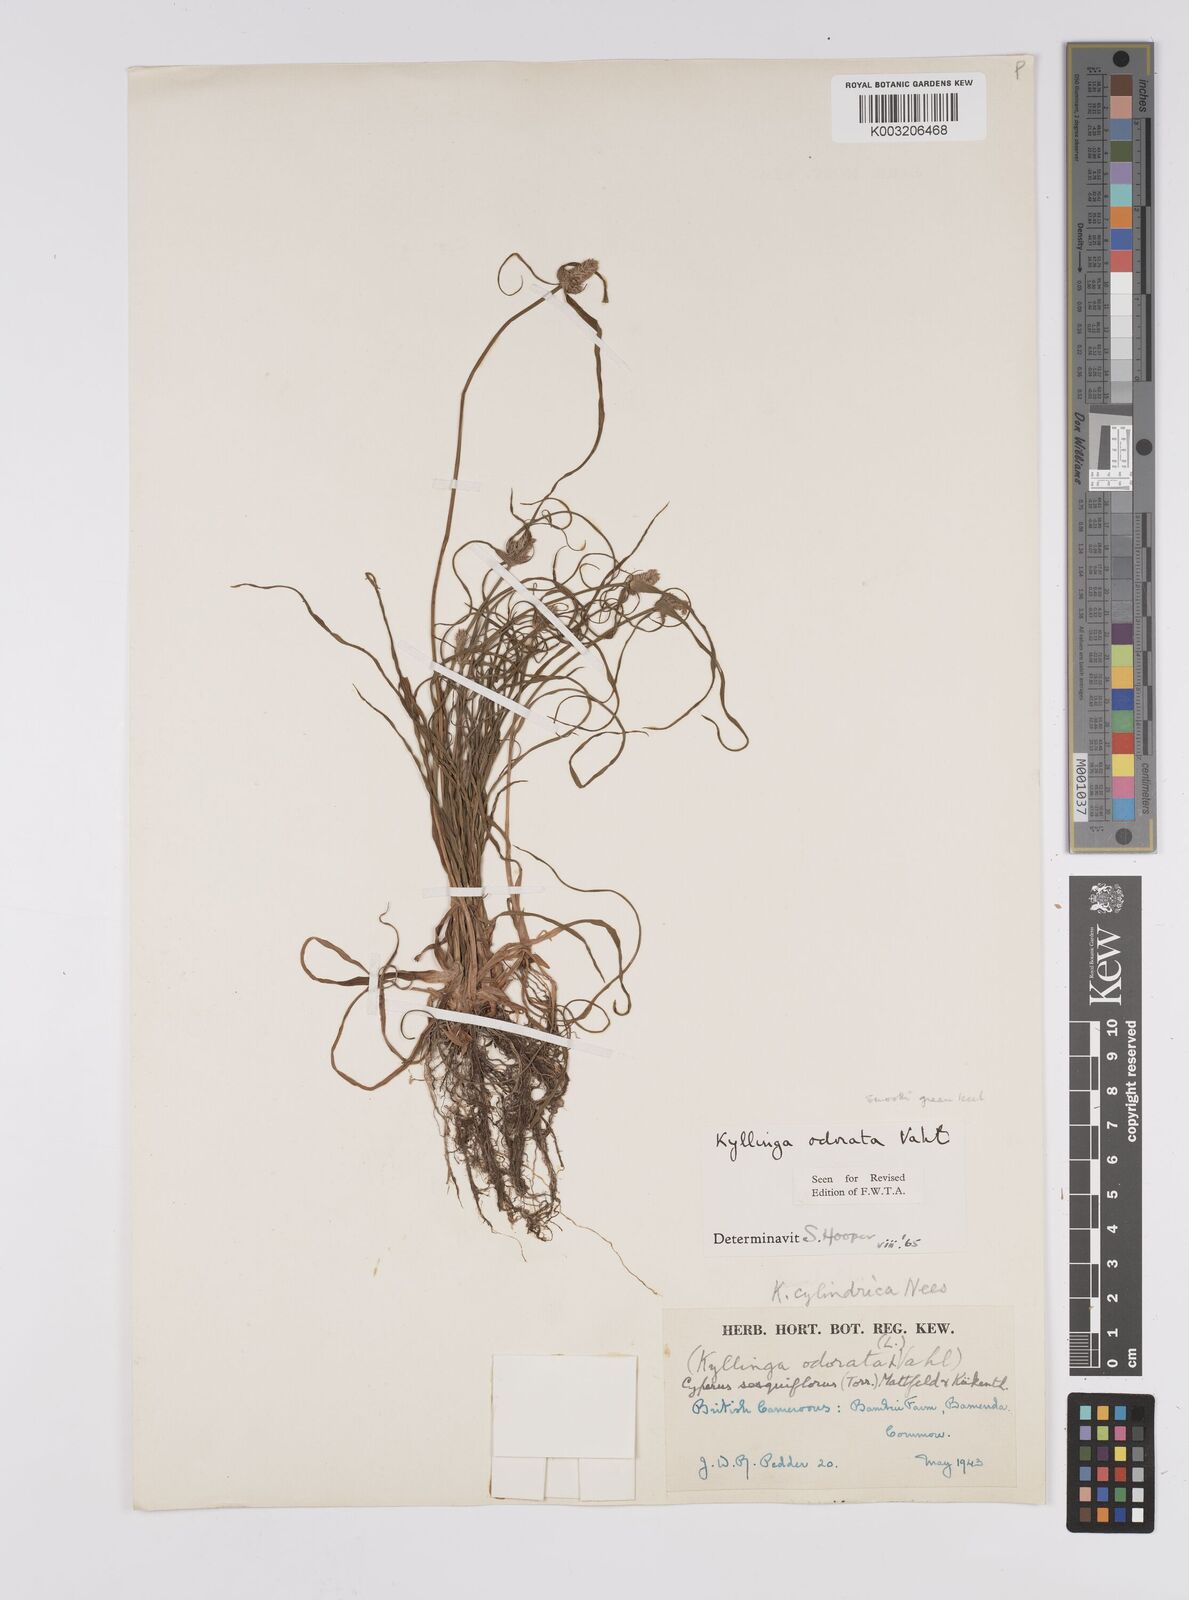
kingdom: Plantae
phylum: Tracheophyta
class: Liliopsida
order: Poales
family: Cyperaceae
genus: Cyperus
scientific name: Cyperus sesquiflorus
